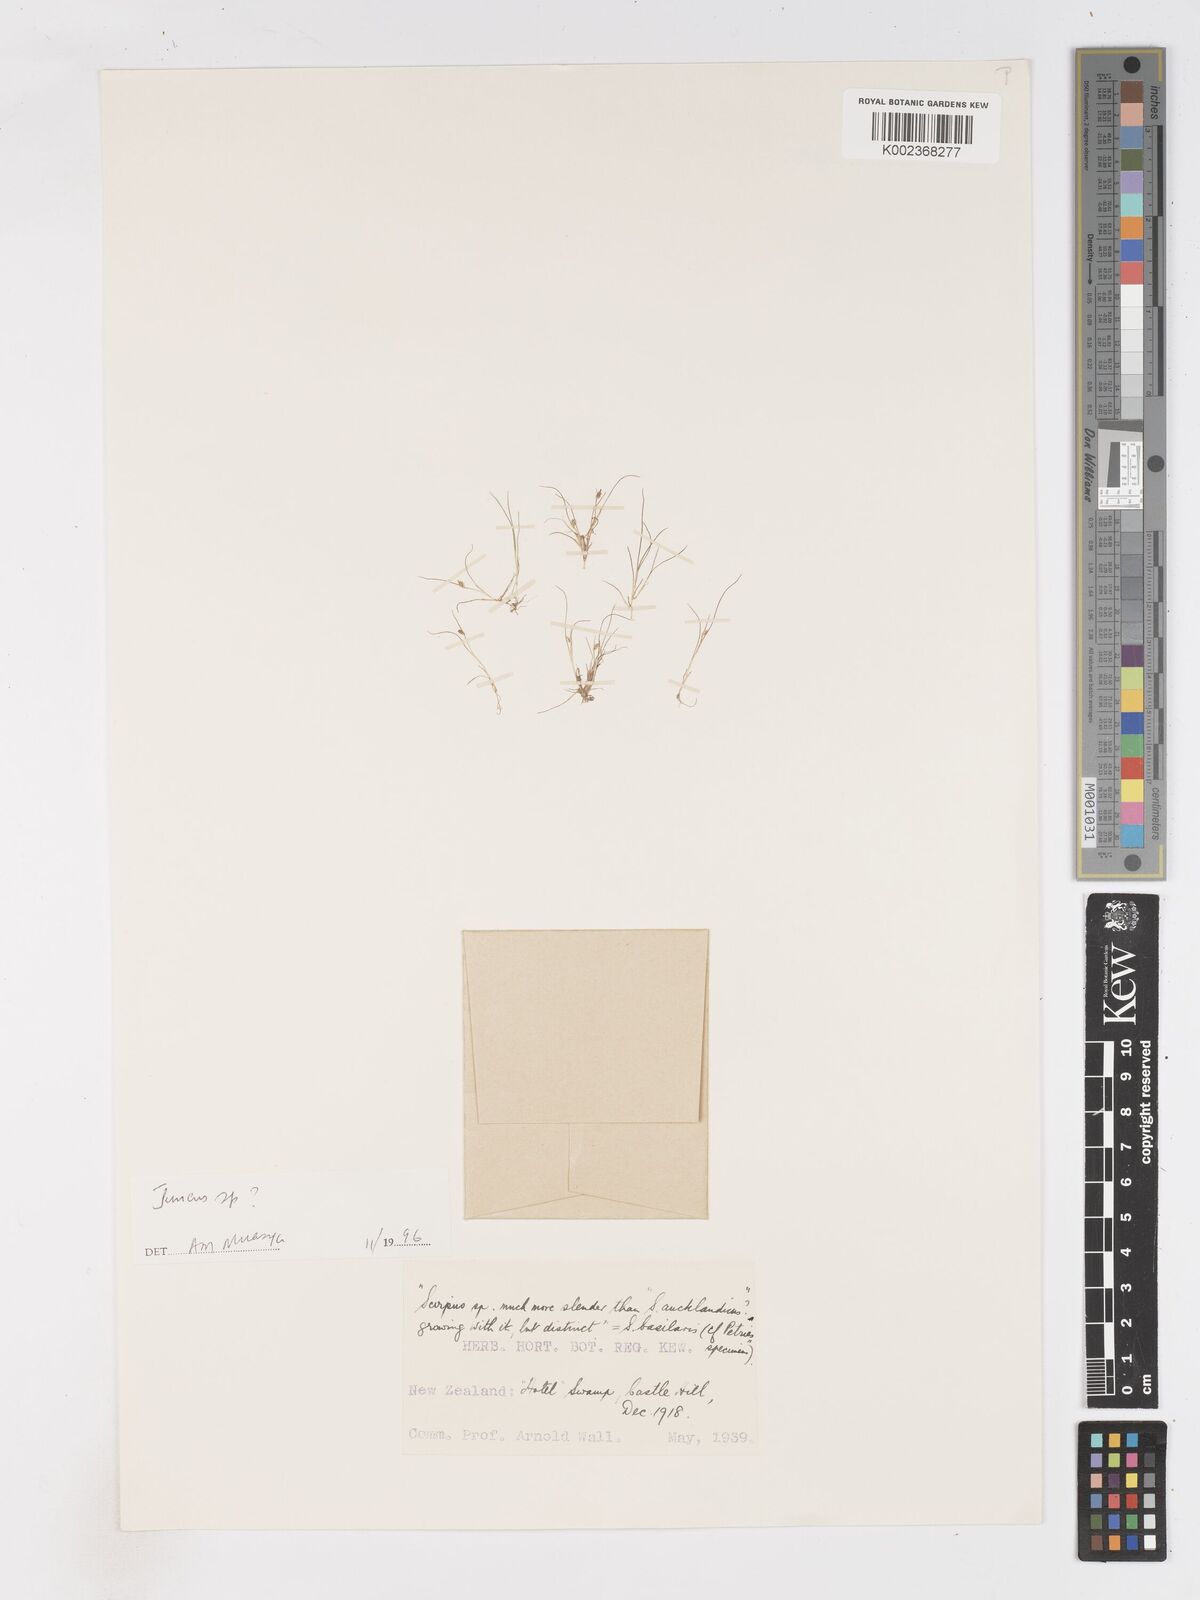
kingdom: Plantae
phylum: Tracheophyta
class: Liliopsida
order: Poales
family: Cyperaceae
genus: Isolepis
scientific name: Isolepis basilaris
